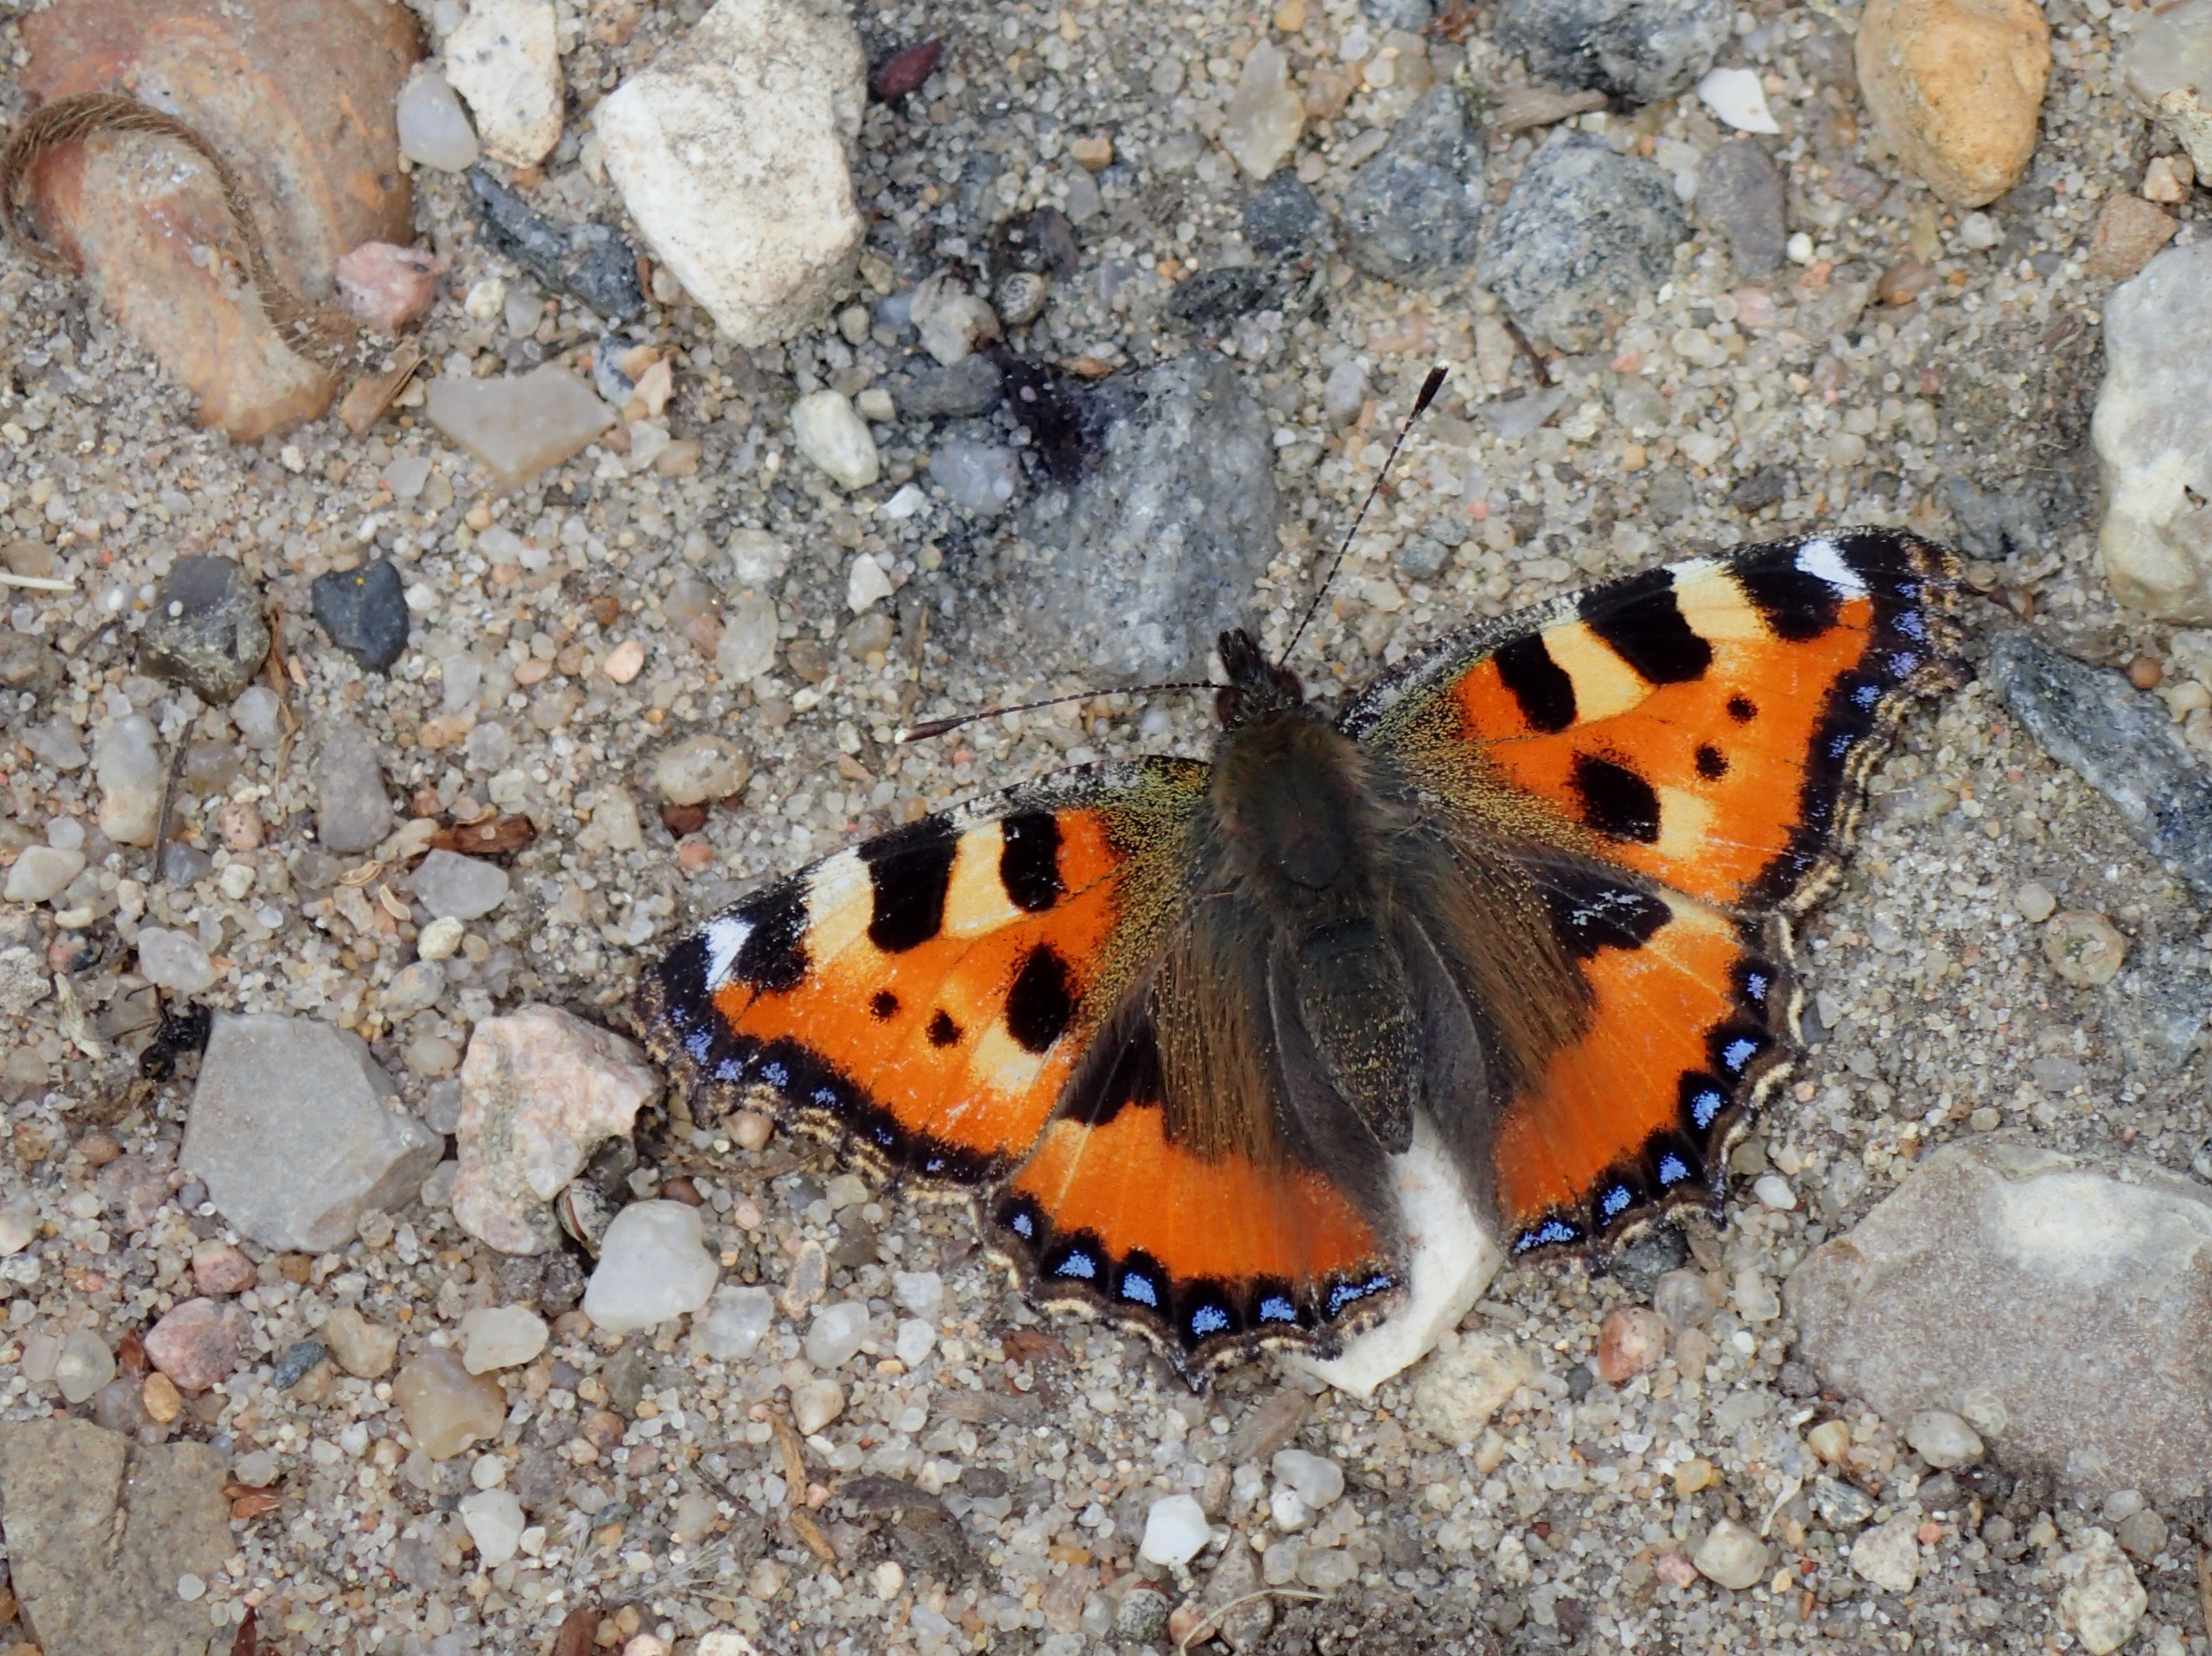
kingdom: Animalia
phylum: Arthropoda
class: Insecta
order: Lepidoptera
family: Nymphalidae
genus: Aglais
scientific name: Aglais urticae
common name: Nældens takvinge
